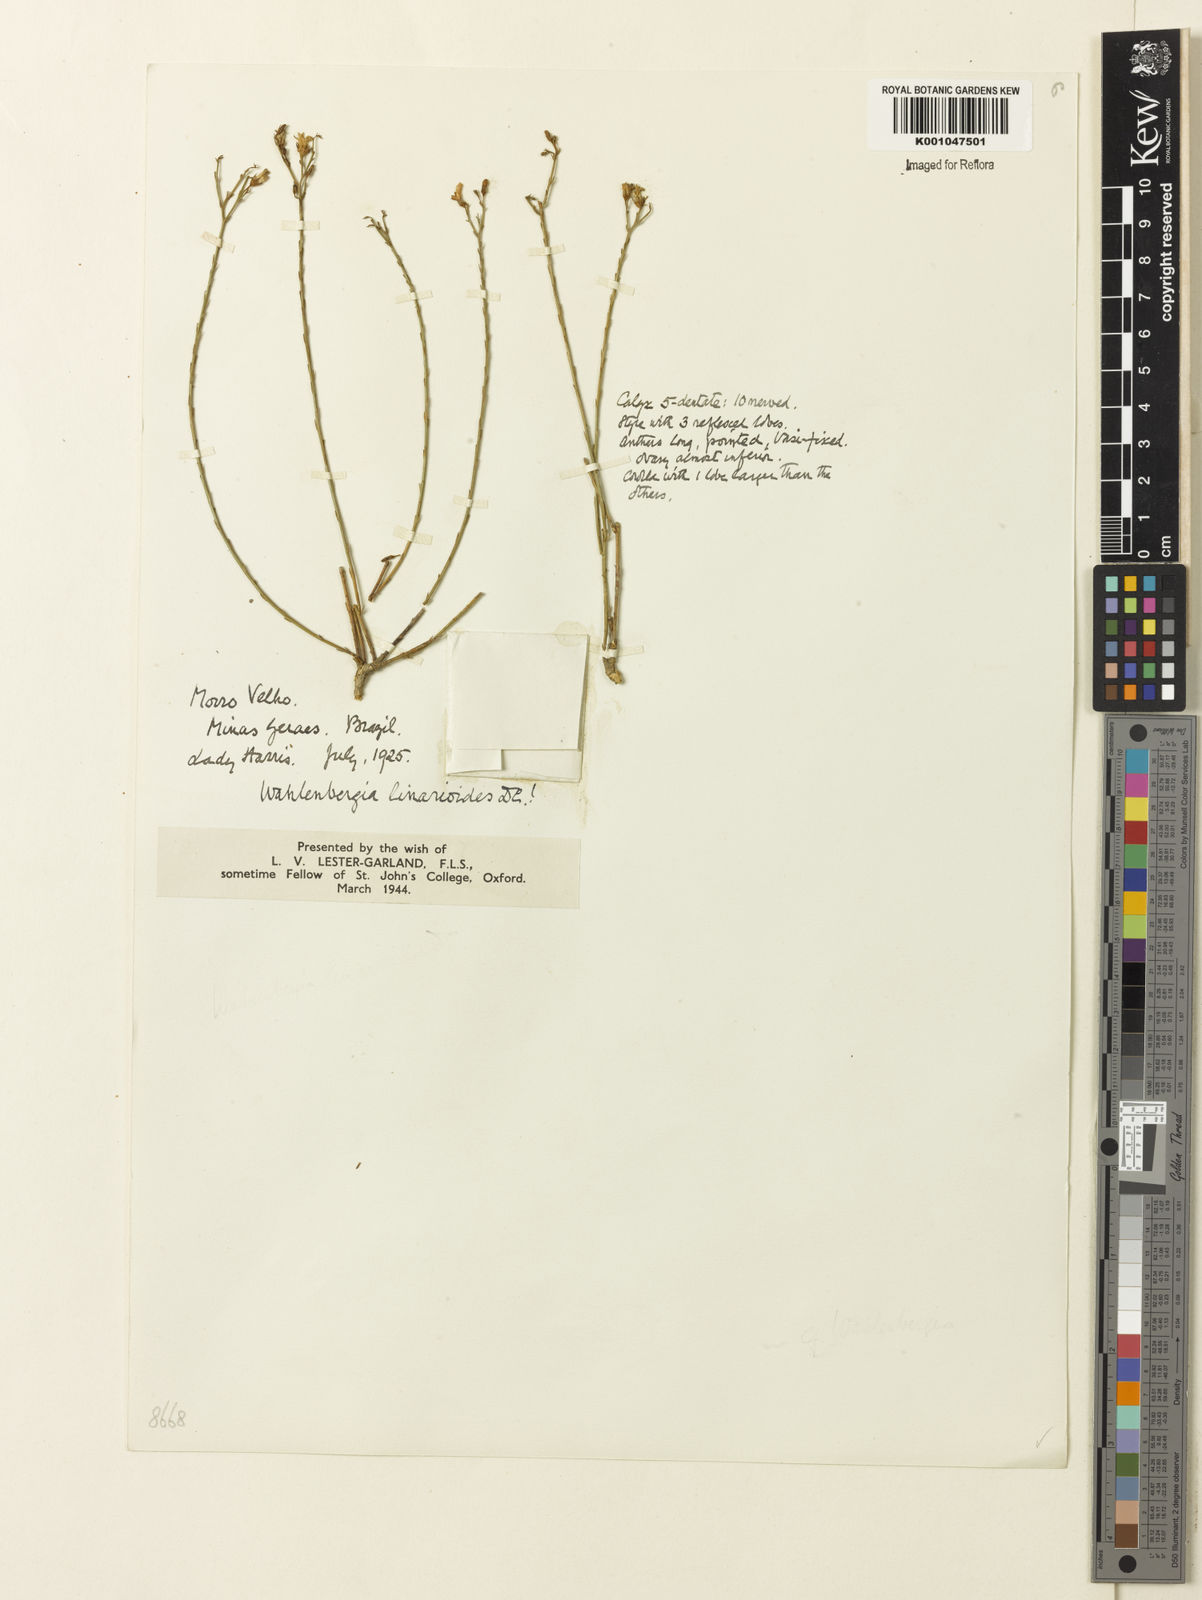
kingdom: Plantae
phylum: Tracheophyta
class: Magnoliopsida
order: Asterales
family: Campanulaceae
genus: Wahlenbergia
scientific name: Wahlenbergia linarioides
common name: Tuffybells
